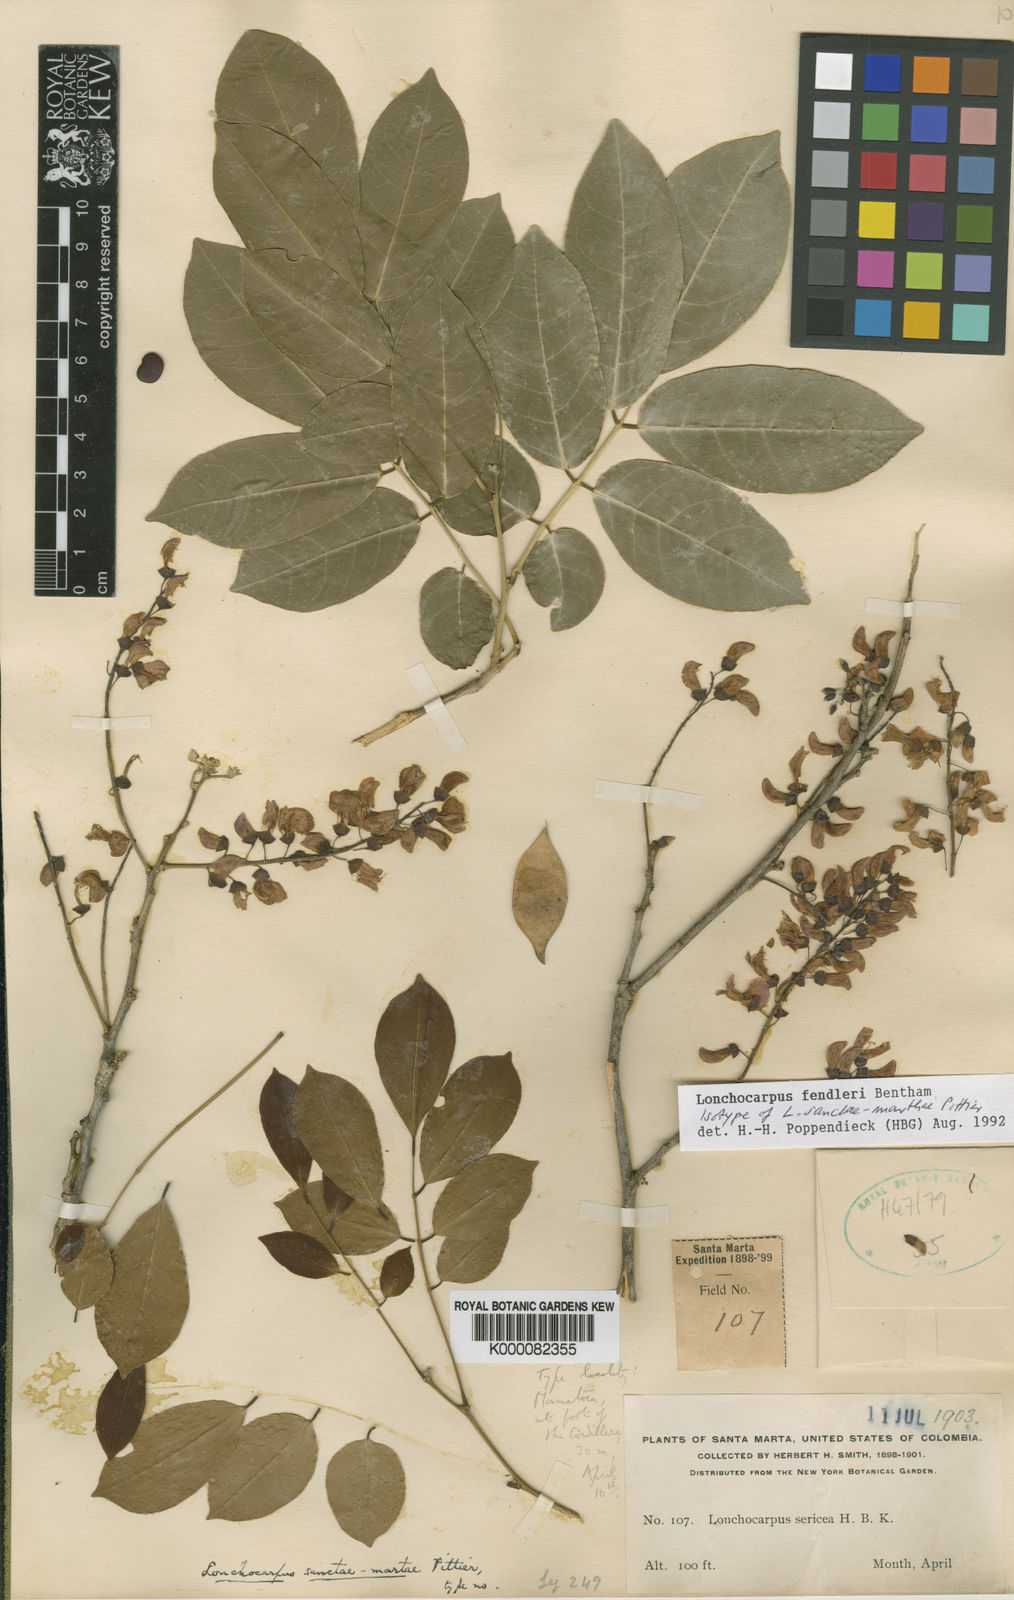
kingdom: Plantae
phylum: Tracheophyta
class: Magnoliopsida
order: Fabales
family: Fabaceae
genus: Muellera
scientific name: Muellera sanctae-marthae
